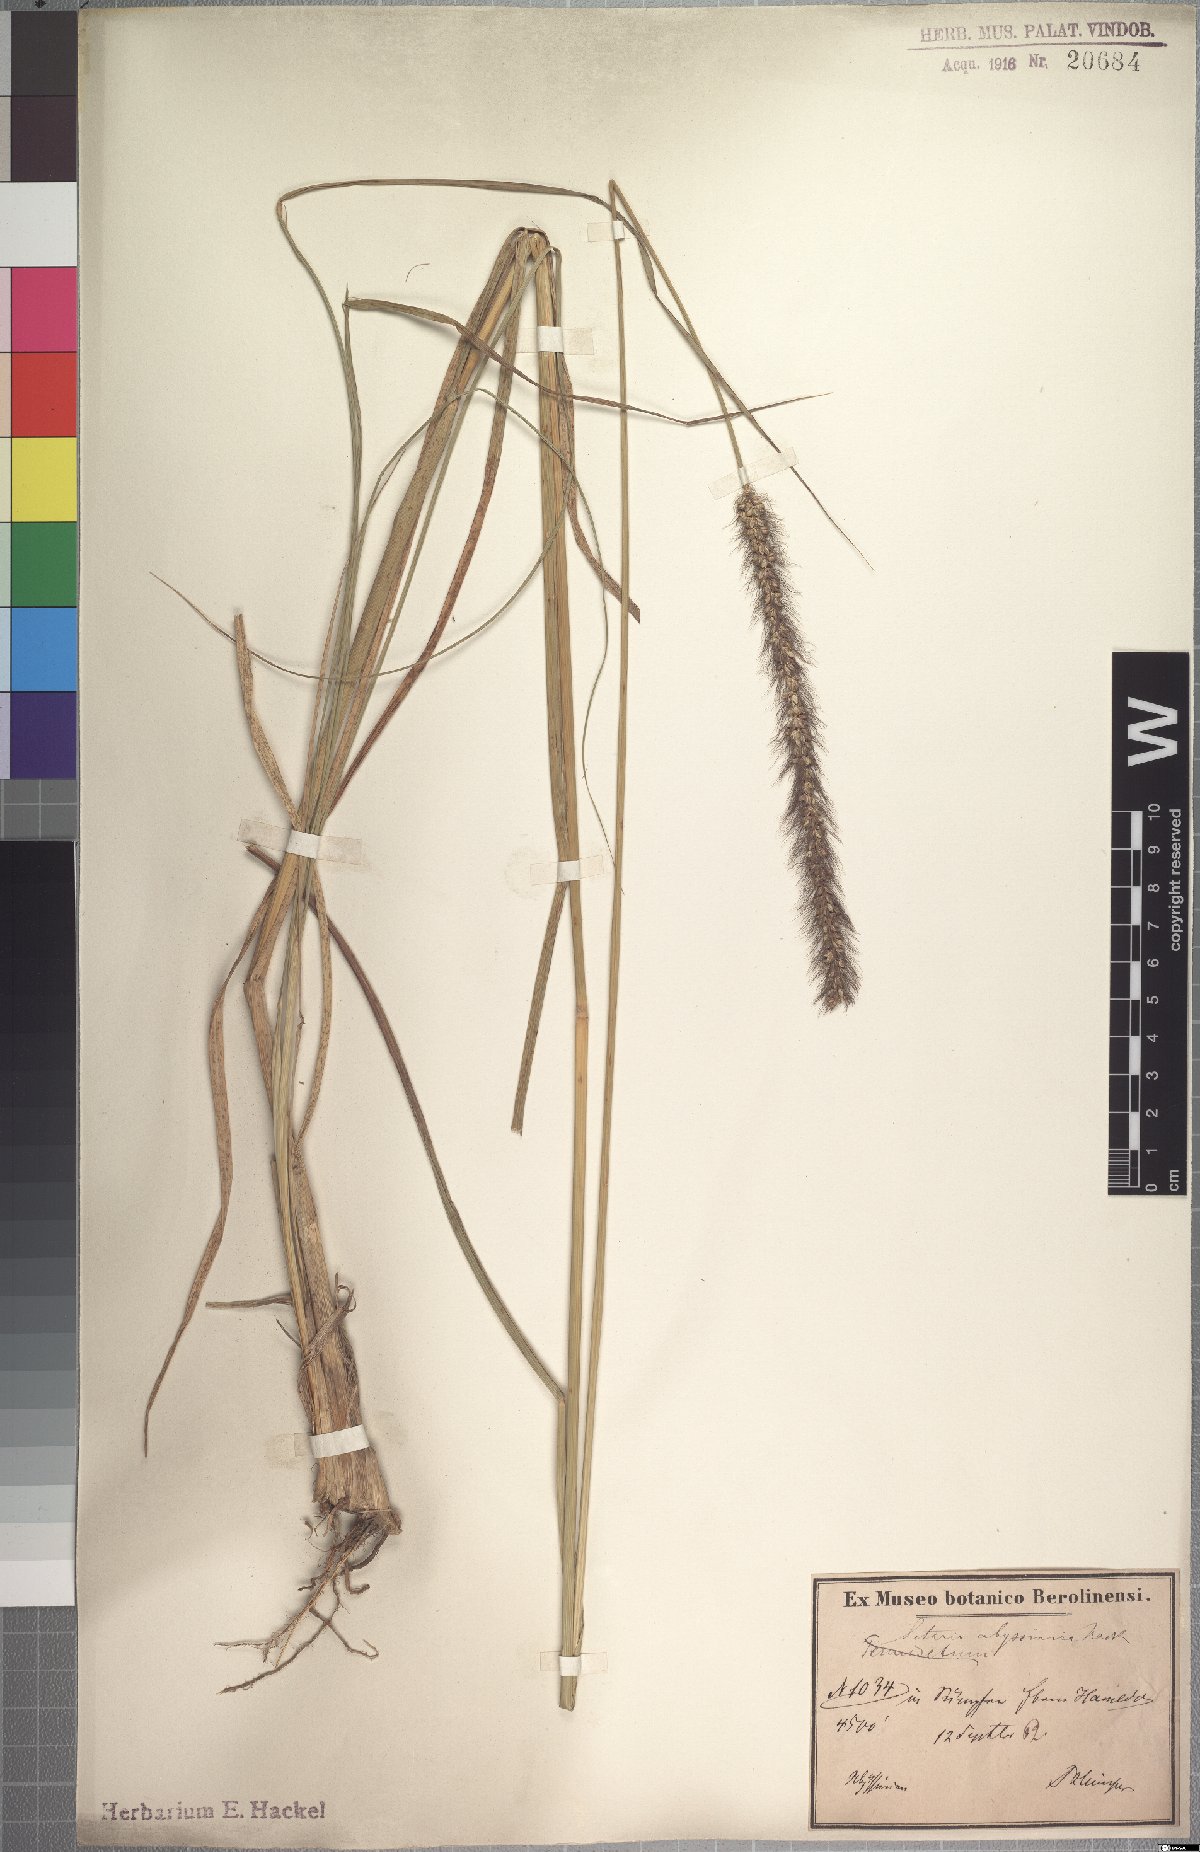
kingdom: Plantae
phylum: Tracheophyta
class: Liliopsida
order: Poales
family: Poaceae
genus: Setaria
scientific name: Setaria incrassata
